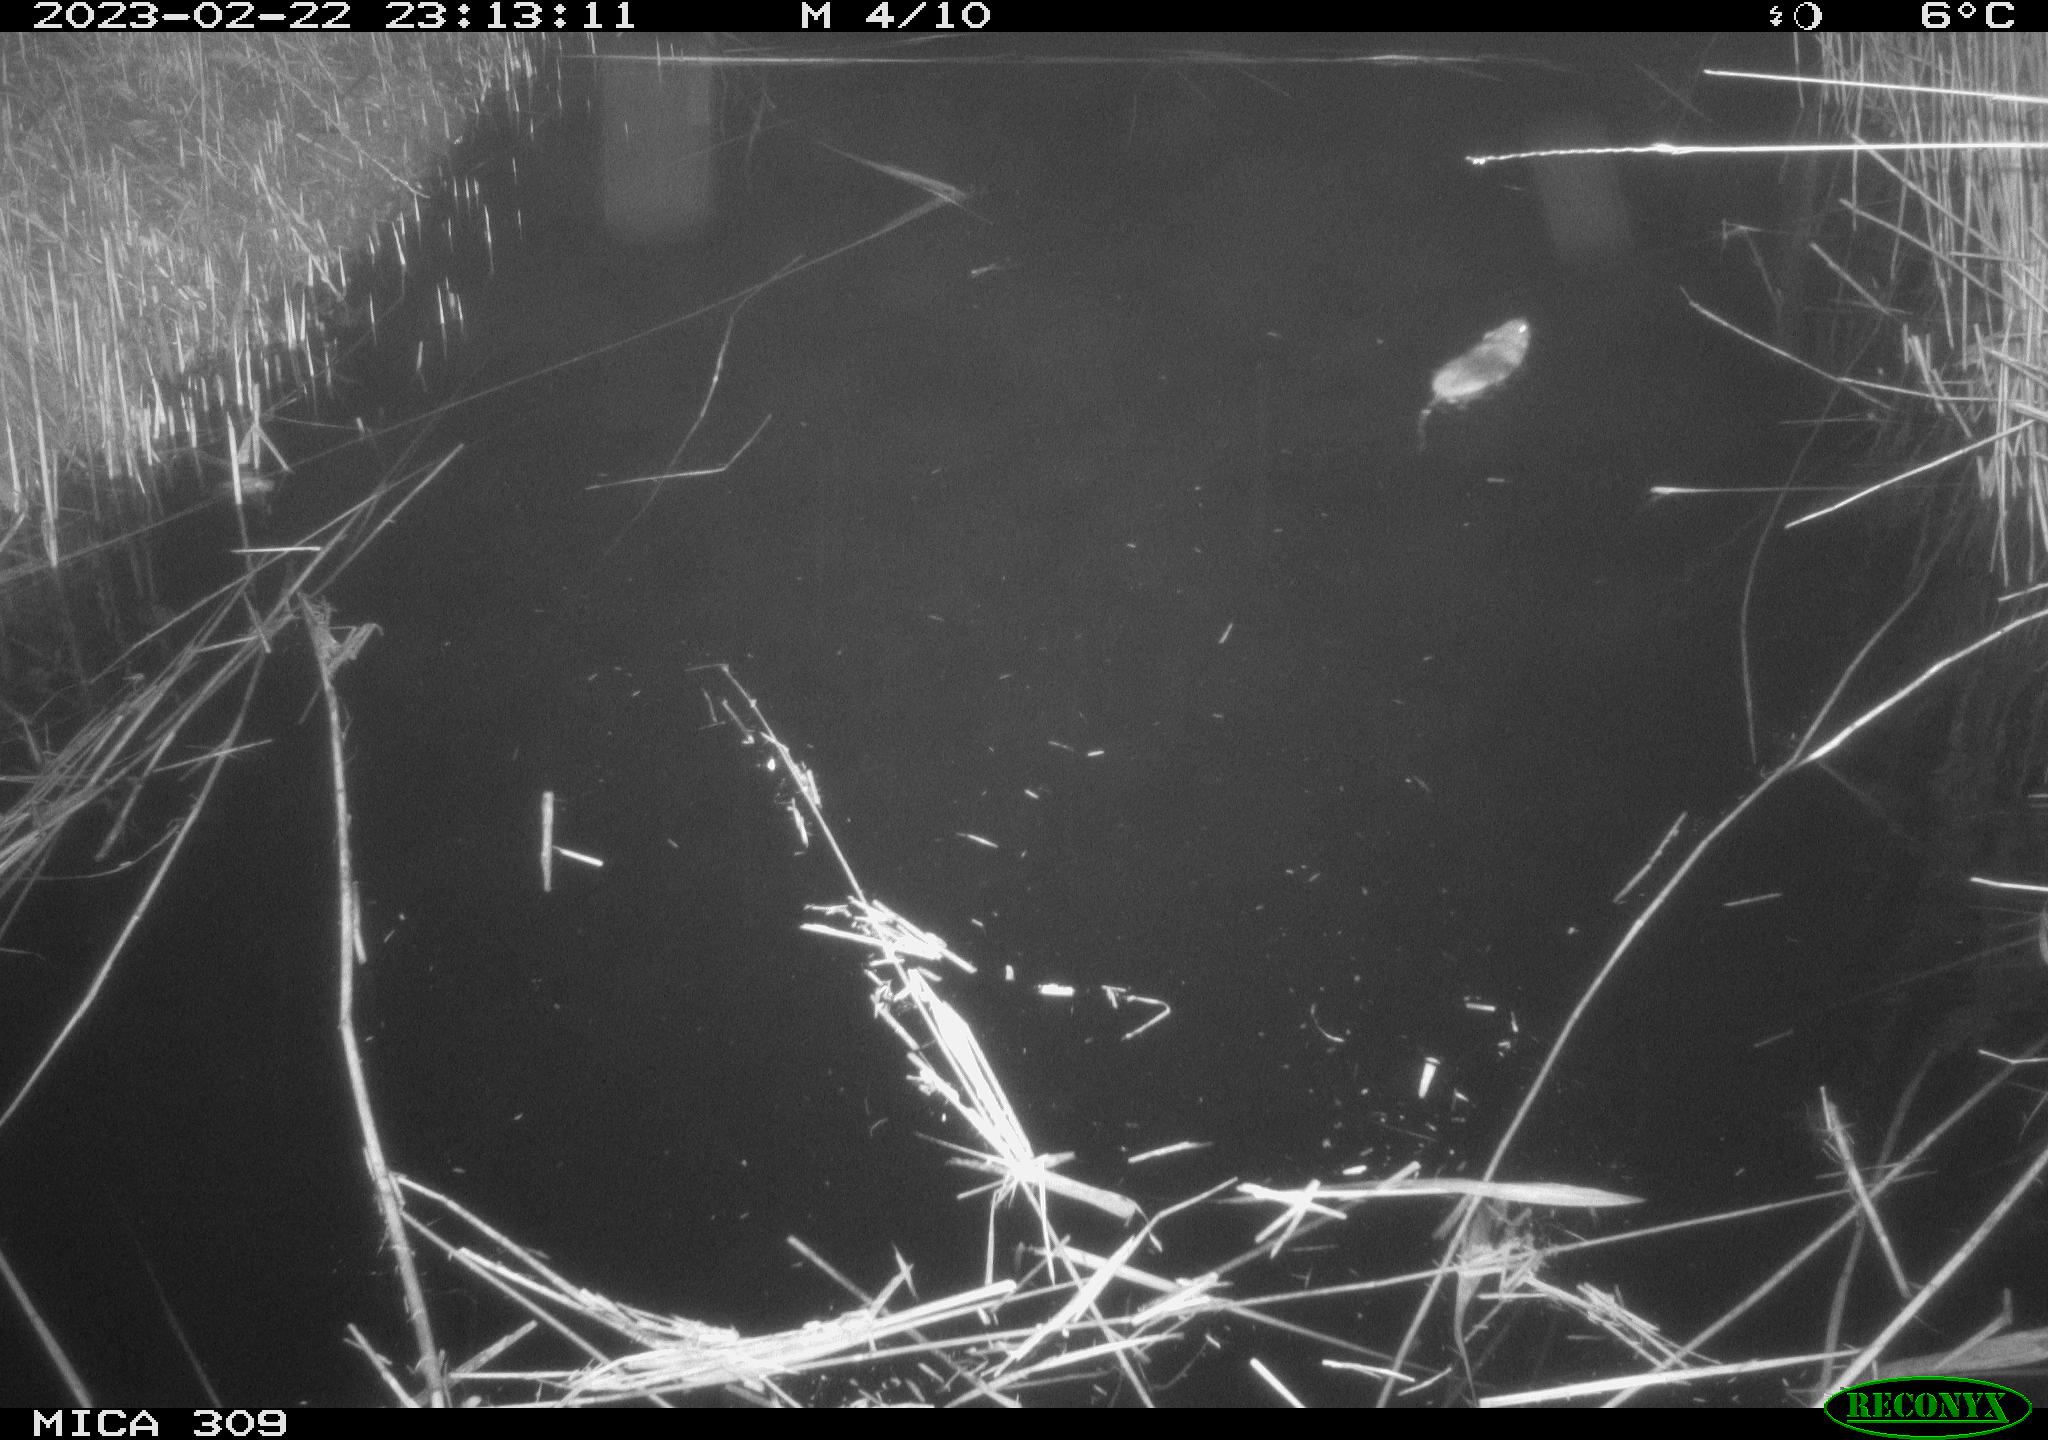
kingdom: Animalia
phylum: Chordata
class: Mammalia
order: Rodentia
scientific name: Rodentia
